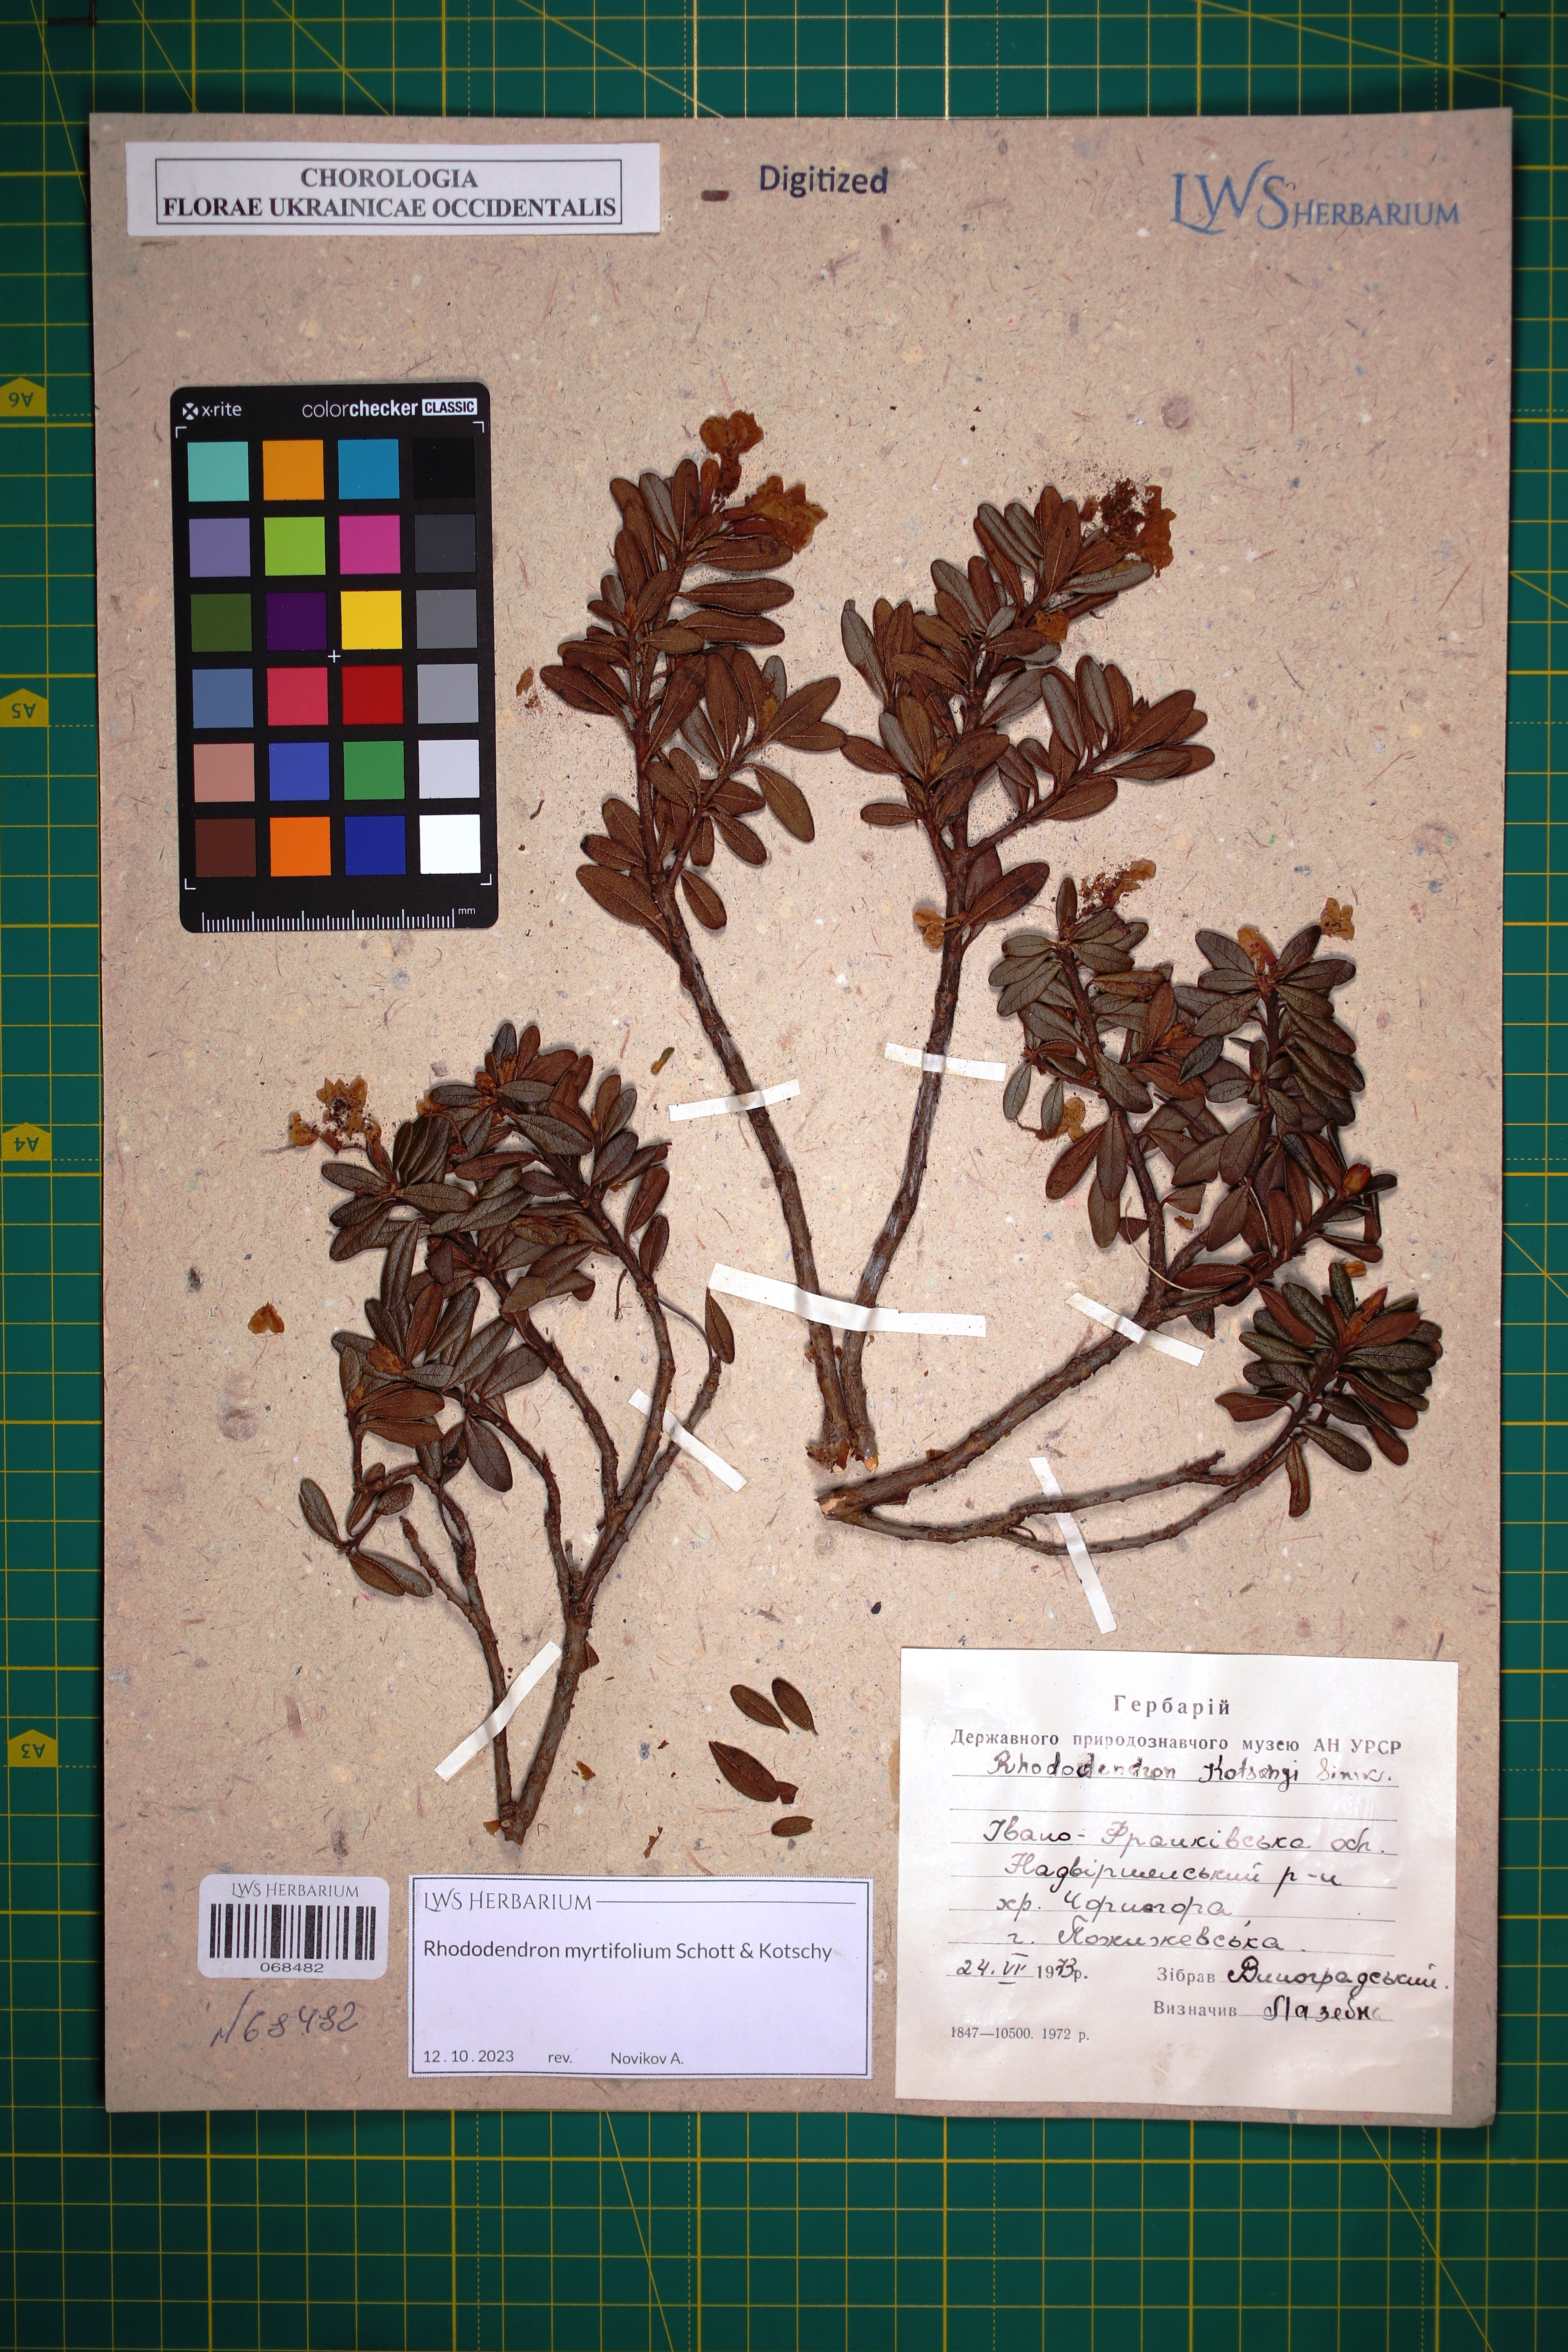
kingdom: Plantae
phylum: Tracheophyta
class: Magnoliopsida
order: Ericales
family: Ericaceae
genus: Rhododendron
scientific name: Rhododendron kotschyi
